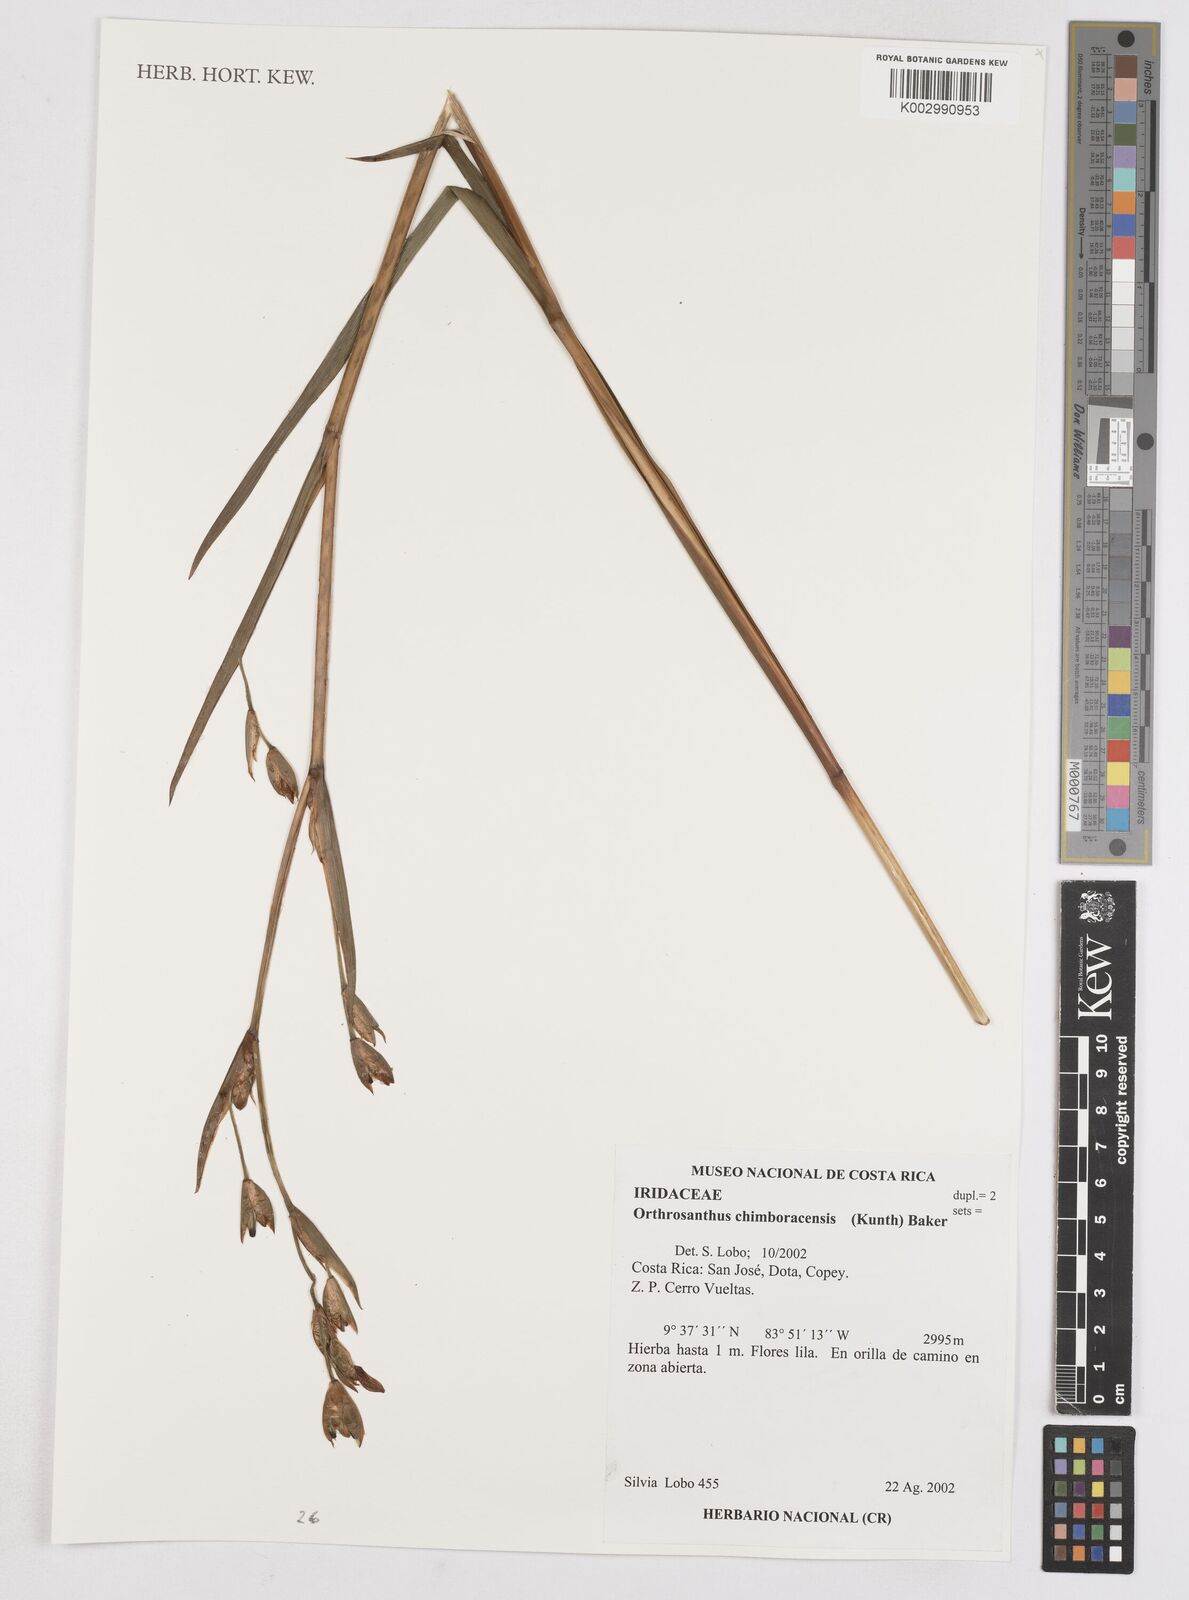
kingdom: Plantae
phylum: Tracheophyta
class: Liliopsida
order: Asparagales
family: Iridaceae
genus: Orthrosanthus
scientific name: Orthrosanthus chimboracensis
